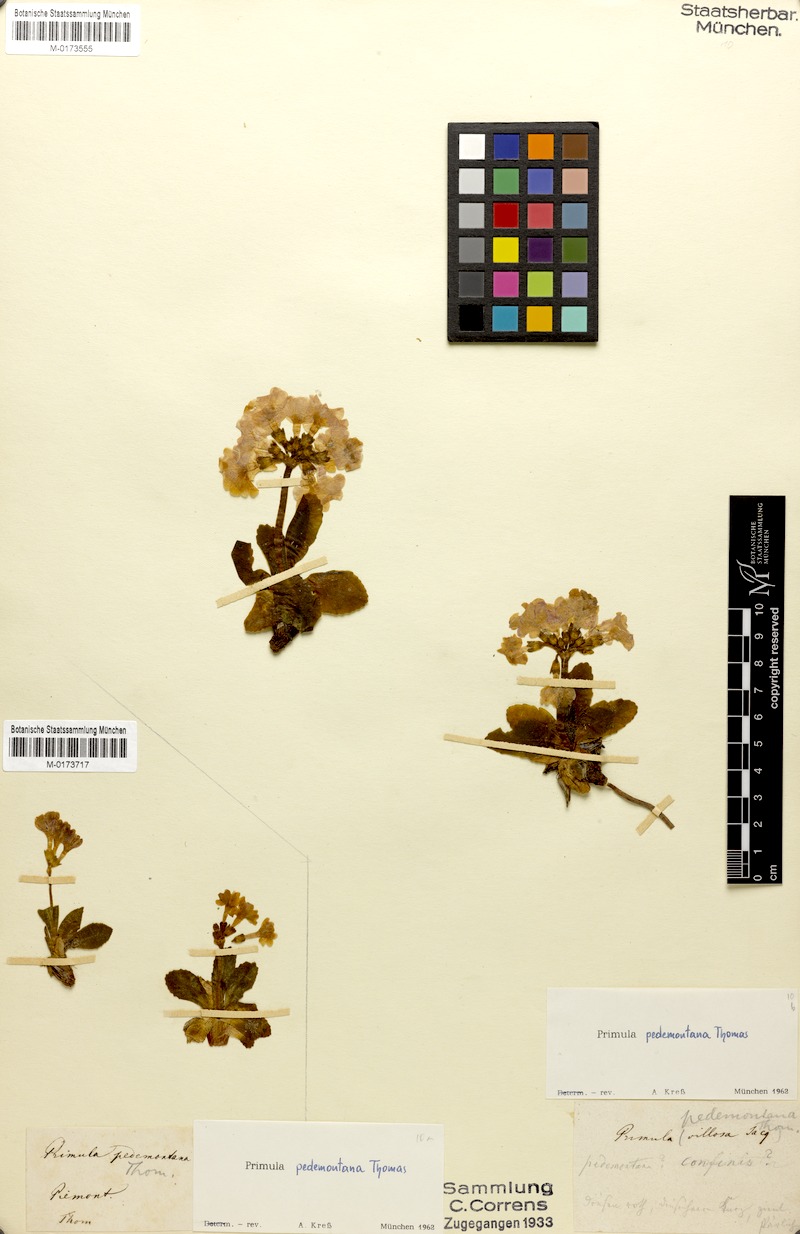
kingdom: Plantae
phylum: Tracheophyta
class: Magnoliopsida
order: Ericales
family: Primulaceae
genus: Primula
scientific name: Primula pedemontana
